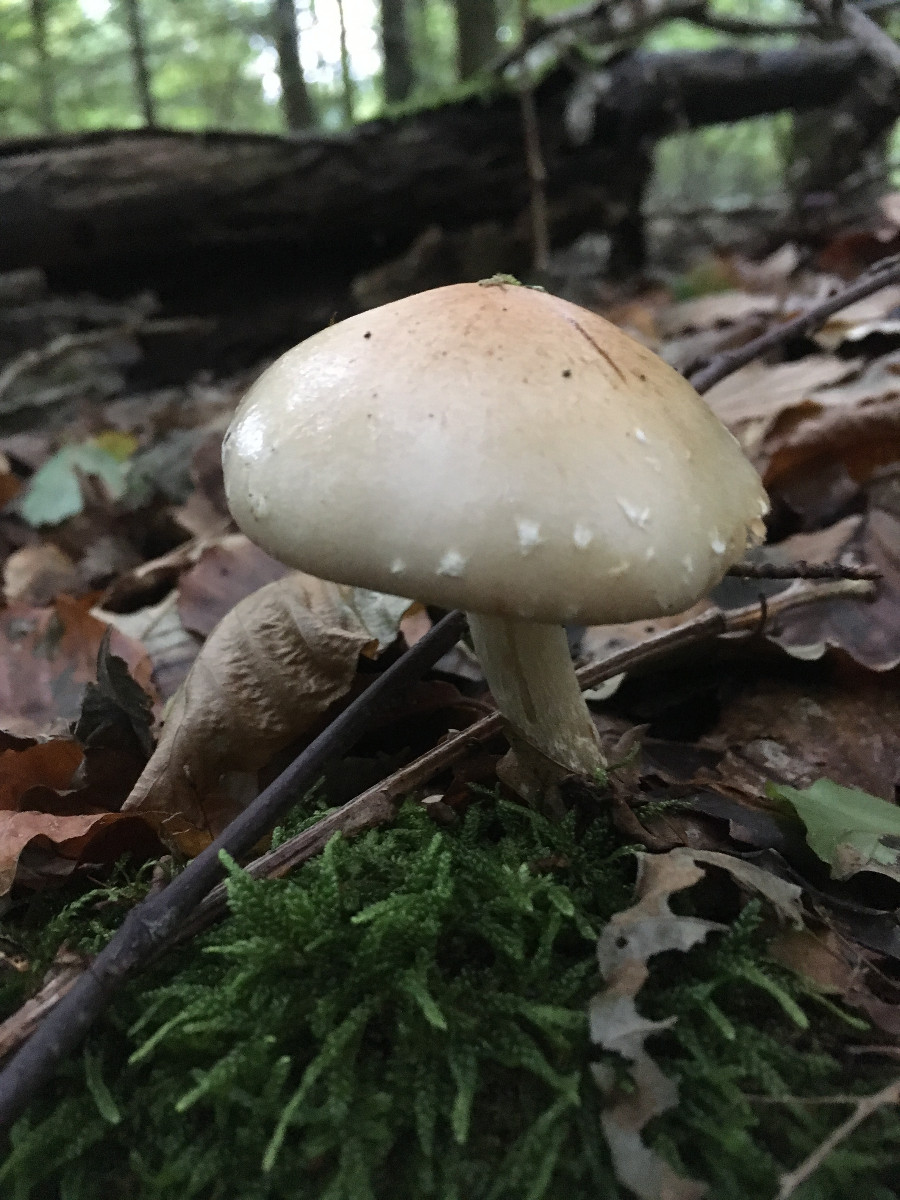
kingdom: Fungi
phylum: Basidiomycota
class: Agaricomycetes
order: Agaricales
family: Strophariaceae
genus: Pholiota
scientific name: Pholiota lenta
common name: løv-skælhat
